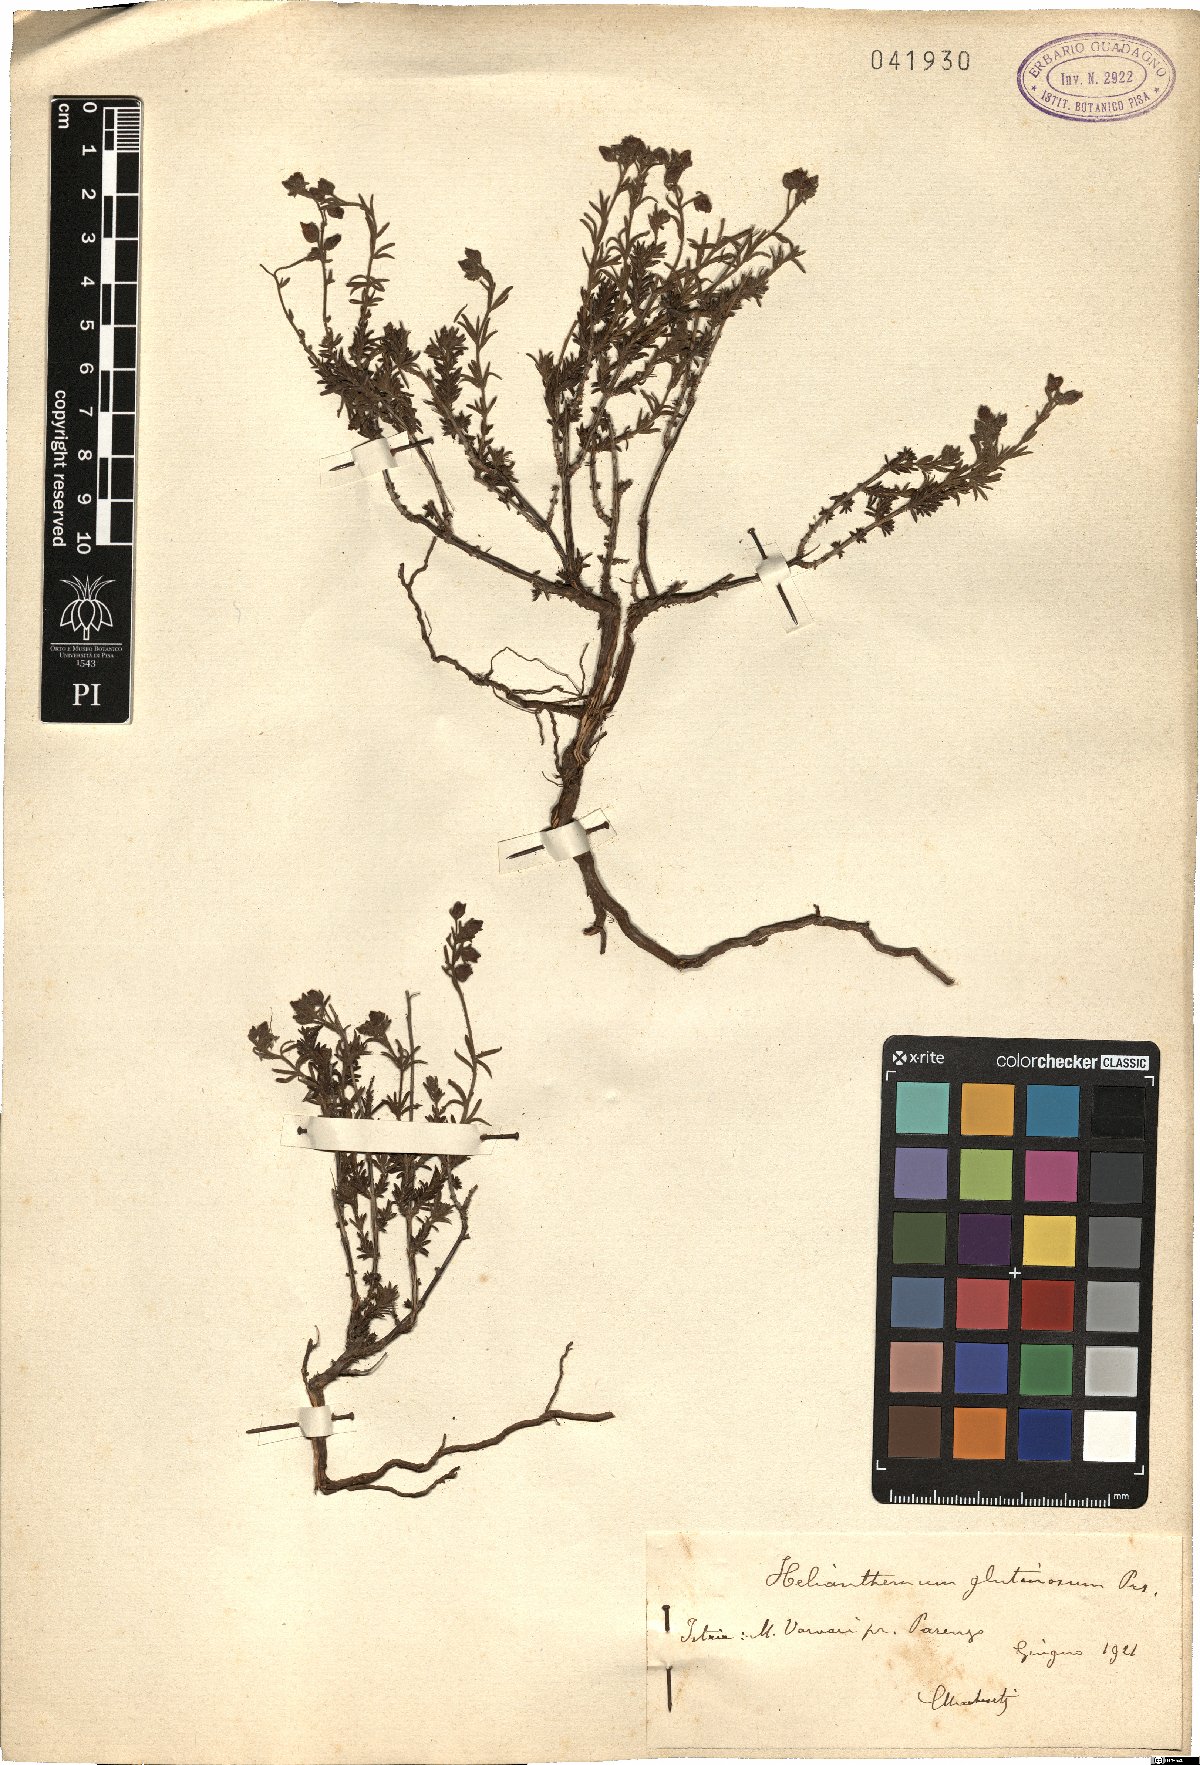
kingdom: Plantae
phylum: Tracheophyta
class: Magnoliopsida
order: Malvales
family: Cistaceae
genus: Fumana
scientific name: Fumana thymifolia
